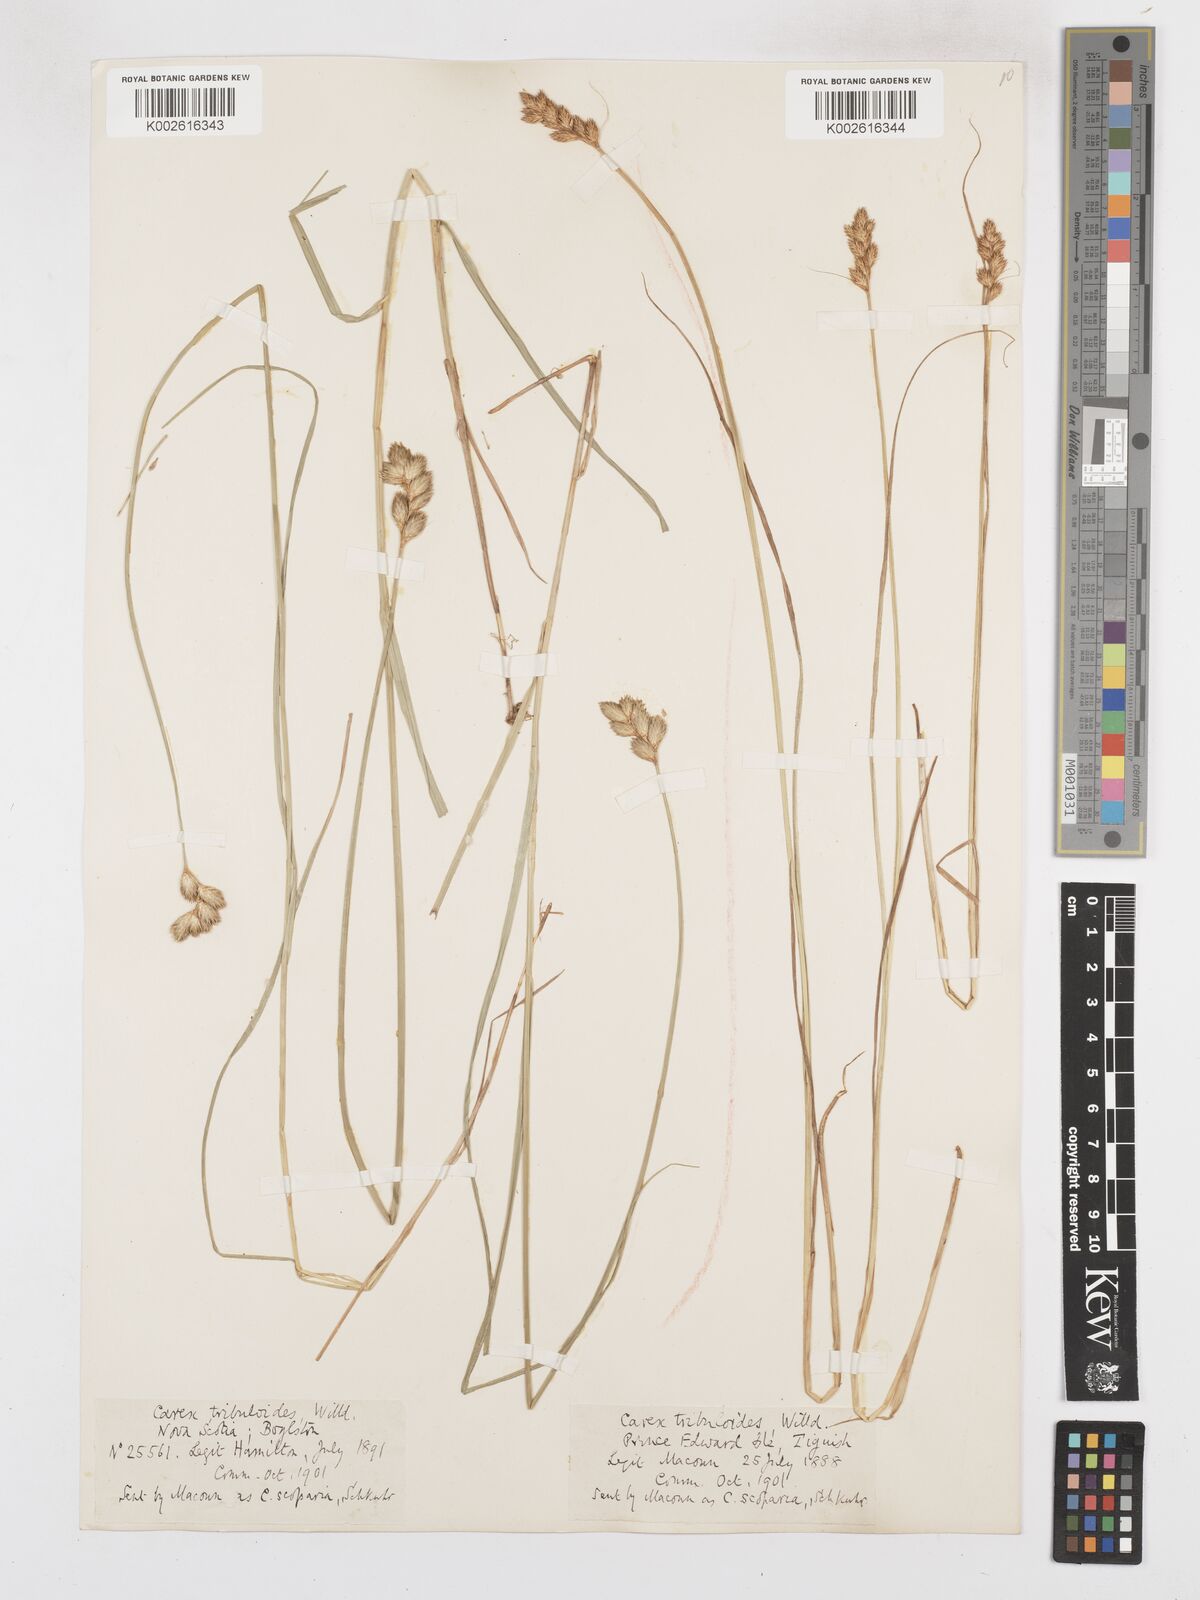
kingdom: Plantae
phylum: Tracheophyta
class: Liliopsida
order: Poales
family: Cyperaceae
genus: Carex
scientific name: Carex tribuloides
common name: Blunt broom sedge
